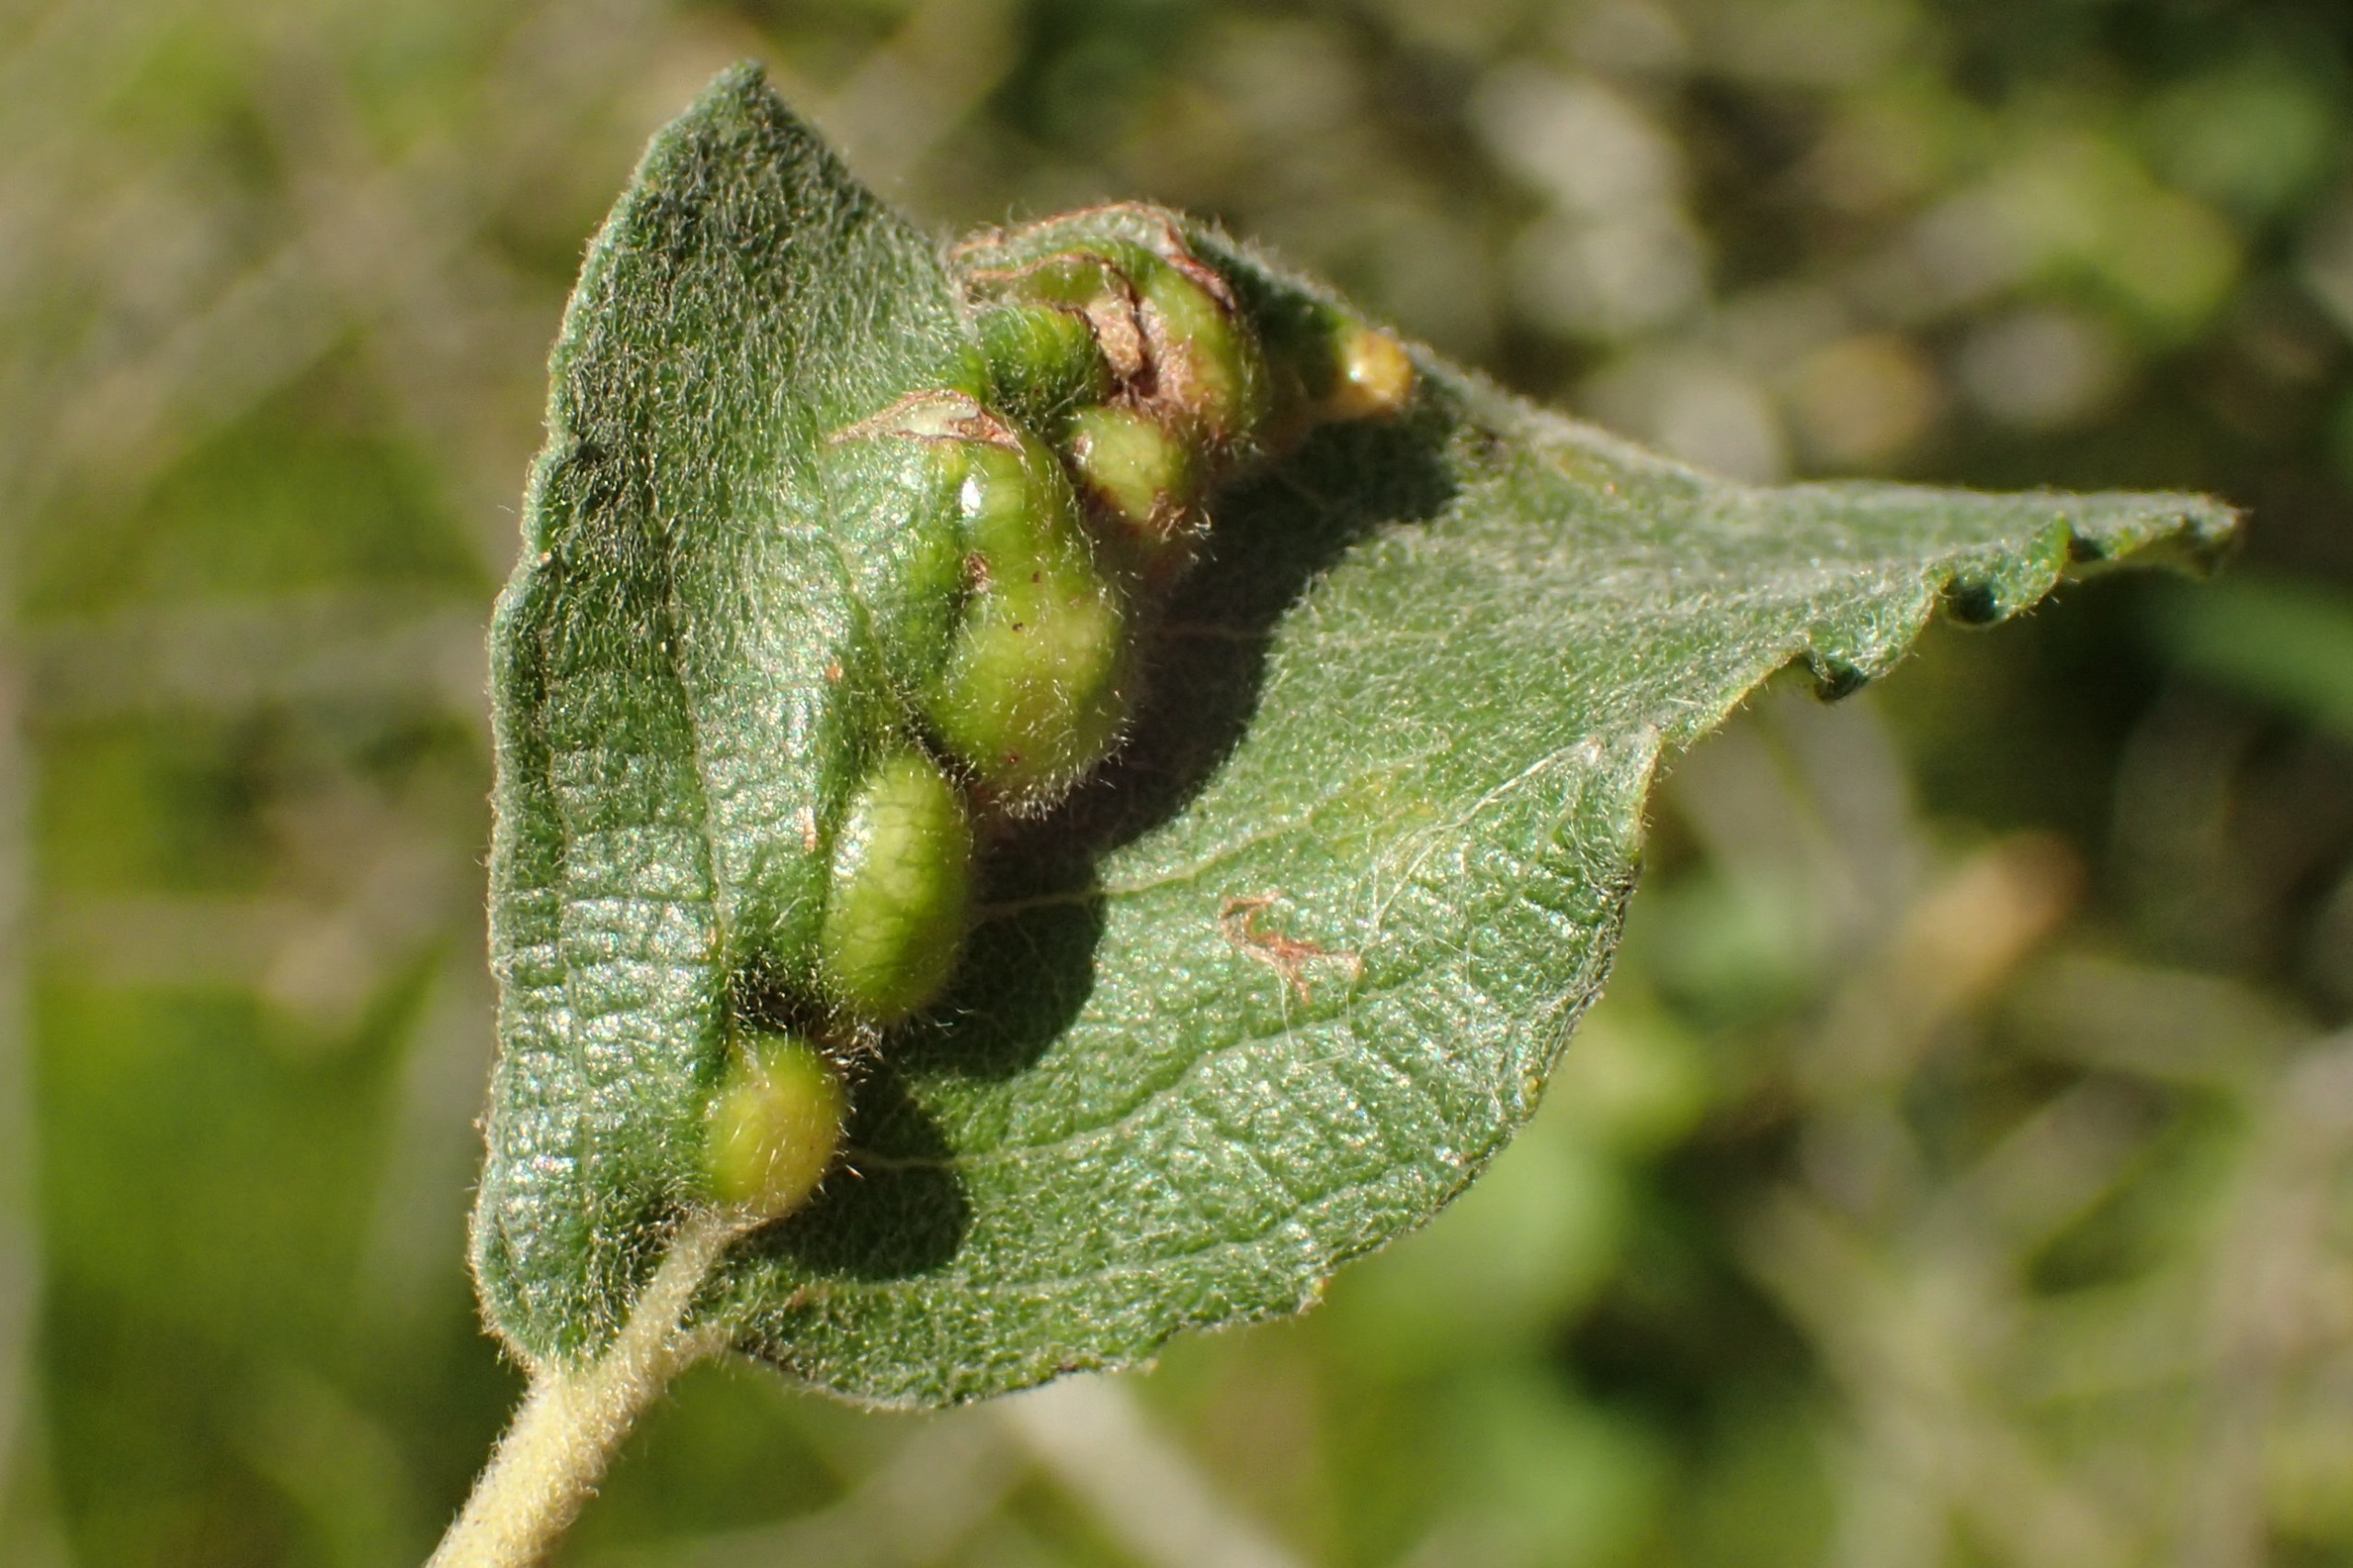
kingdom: Animalia
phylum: Arthropoda
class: Insecta
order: Diptera
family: Cecidomyiidae
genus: Iteomyia
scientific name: Iteomyia major
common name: Stor seljebladgalmyg
